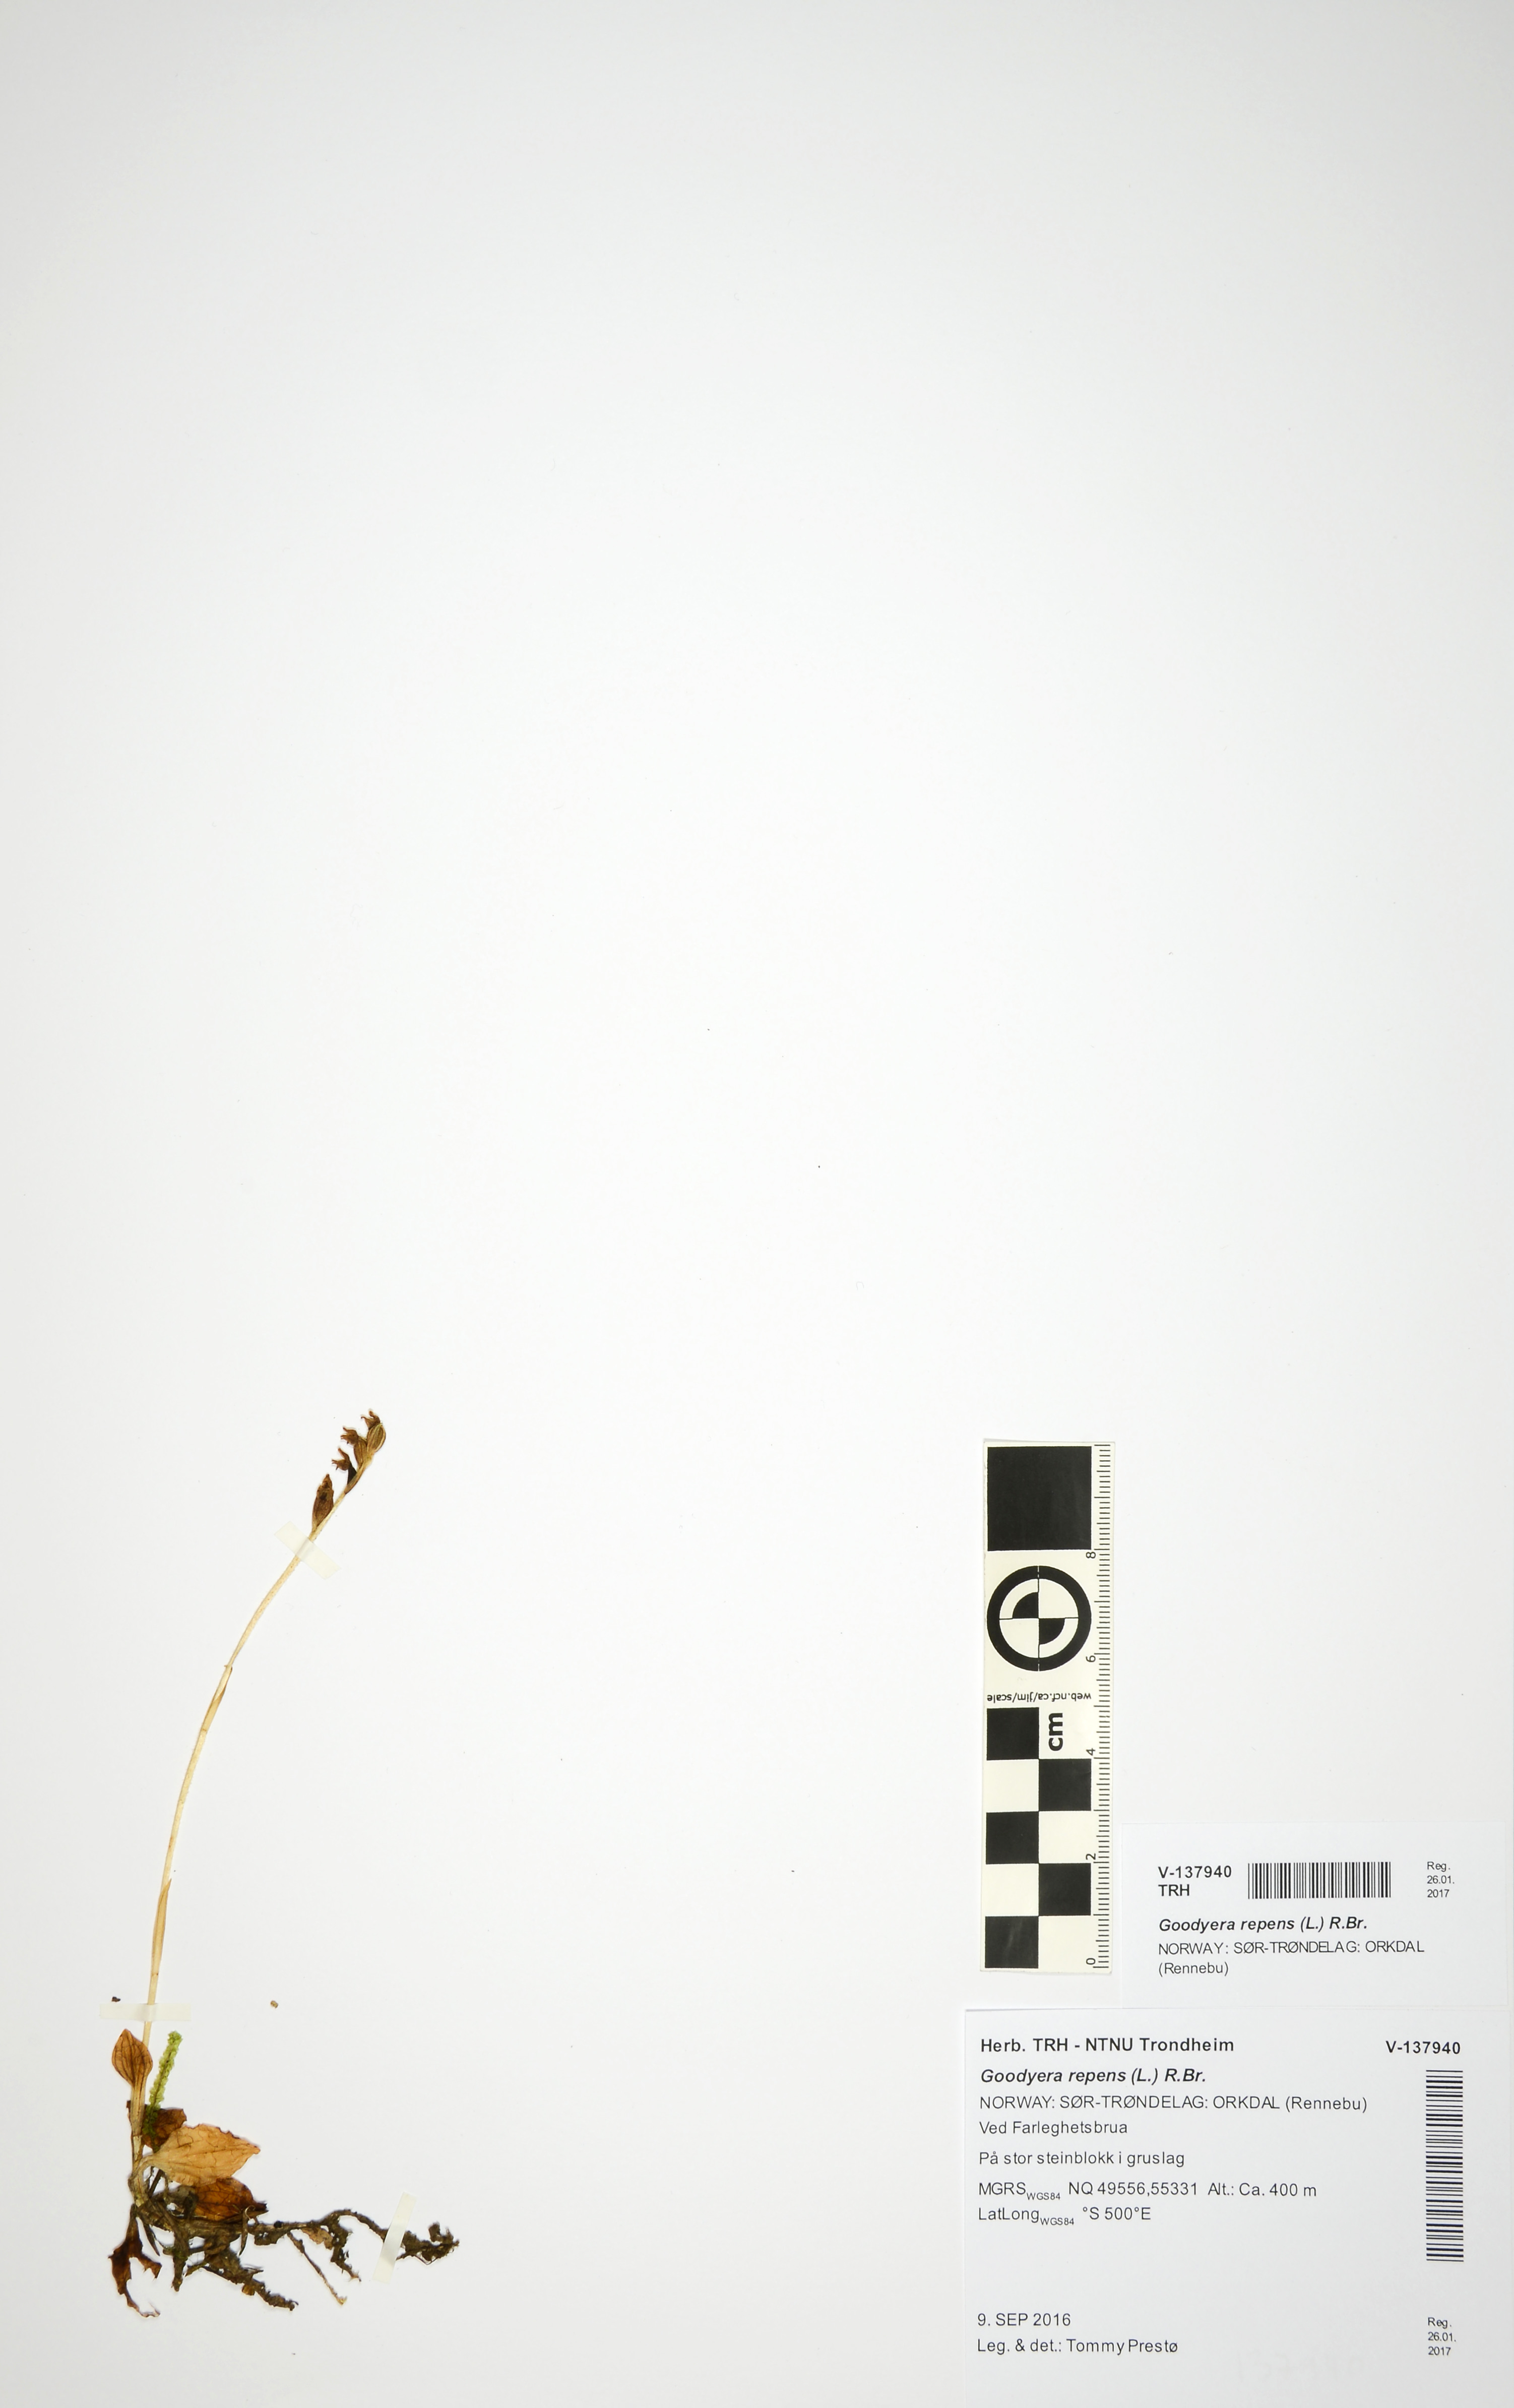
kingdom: Plantae
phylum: Tracheophyta
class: Liliopsida
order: Asparagales
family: Orchidaceae
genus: Goodyera
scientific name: Goodyera repens
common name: Creeping lady's-tresses
